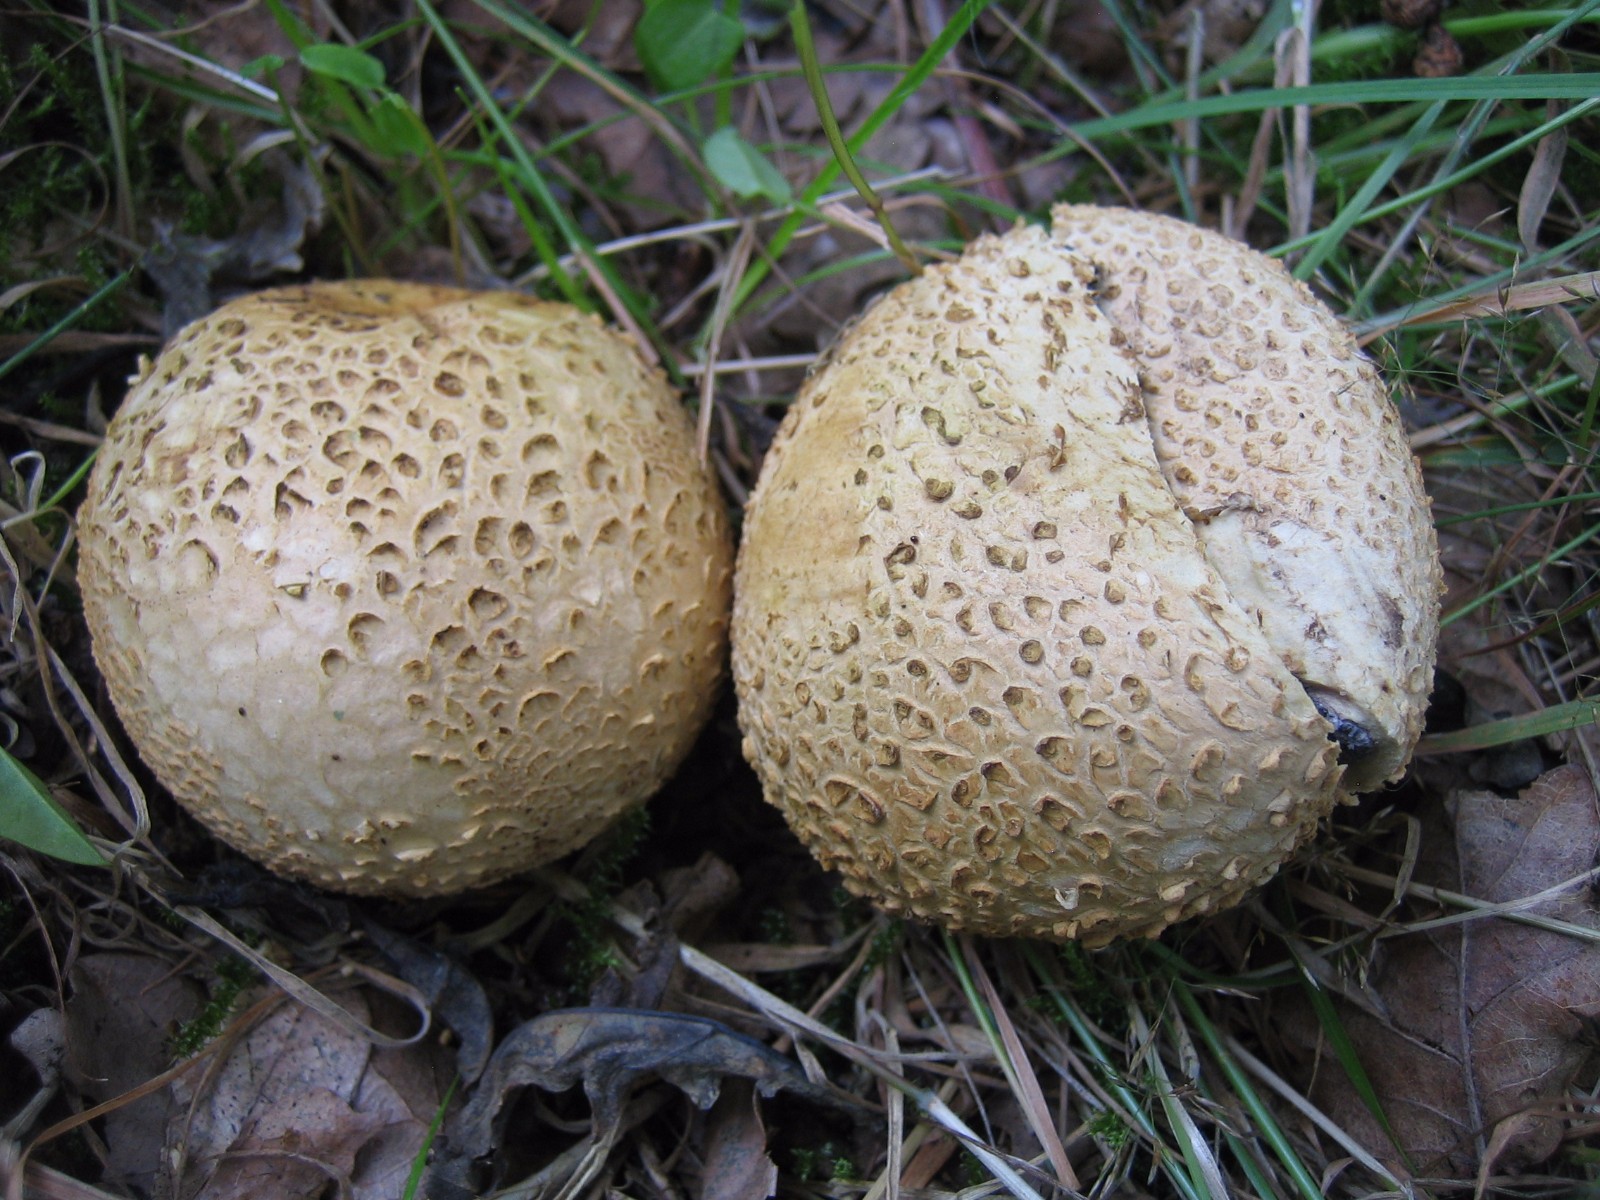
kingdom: Fungi
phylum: Basidiomycota
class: Agaricomycetes
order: Boletales
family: Sclerodermataceae
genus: Scleroderma
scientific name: Scleroderma citrinum
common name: almindelig bruskbold
